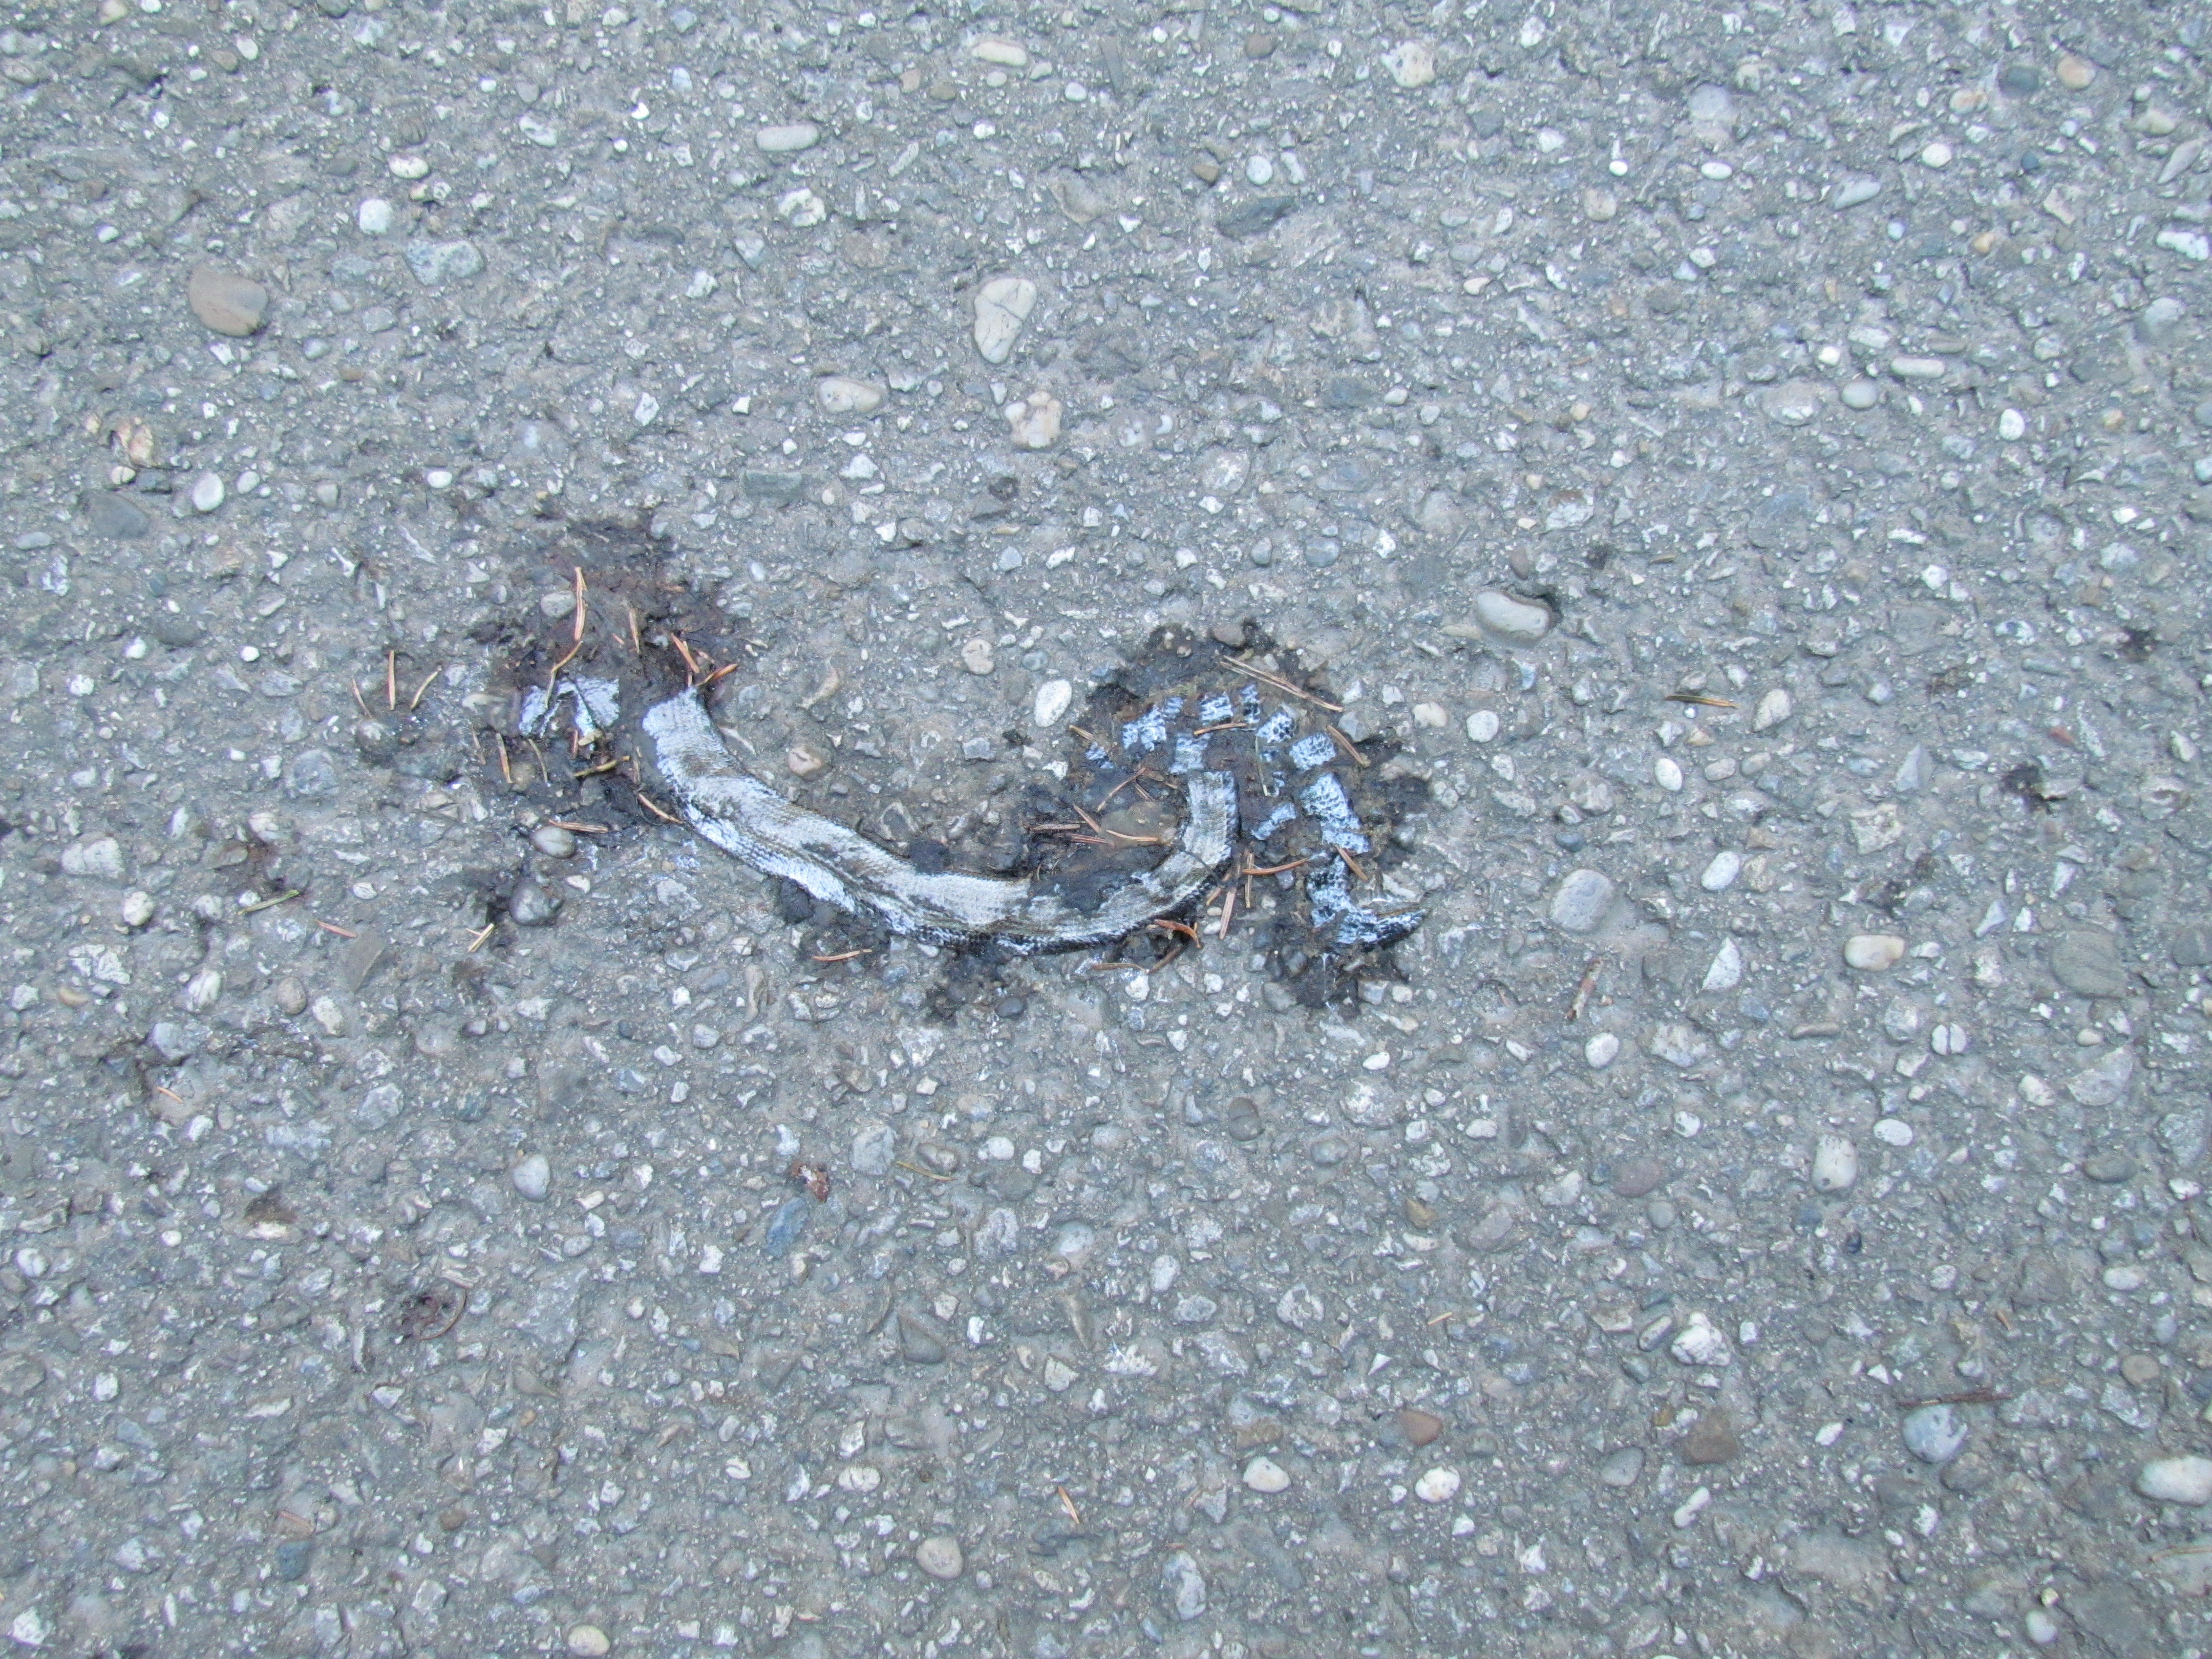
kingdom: Animalia
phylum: Chordata
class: Squamata
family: Anguidae
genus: Anguis
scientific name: Anguis fragilis
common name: Slow worm
